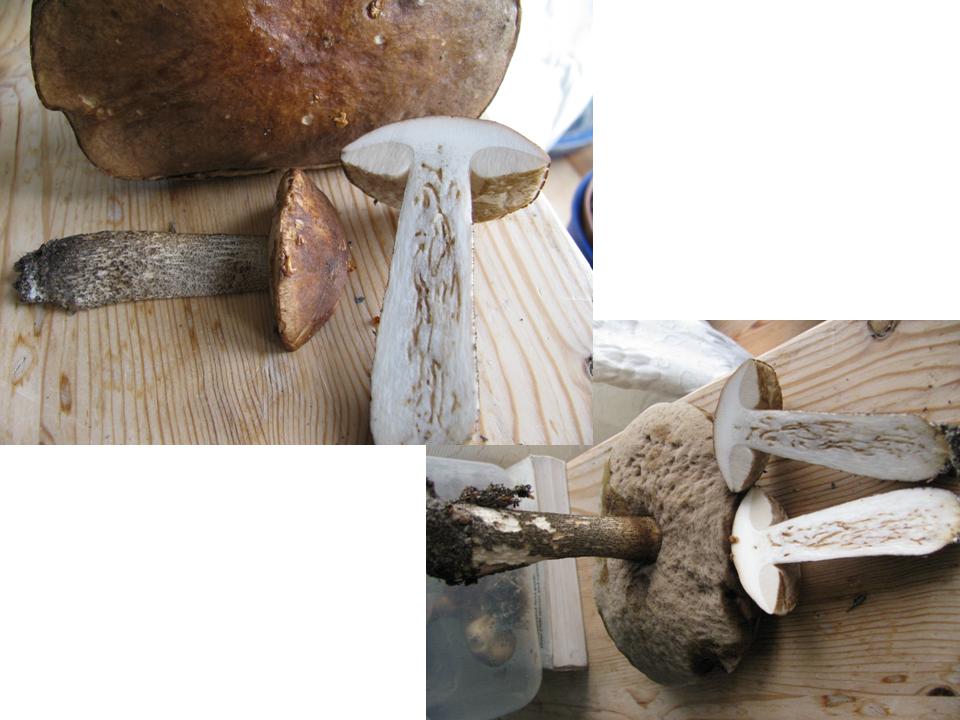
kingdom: Fungi
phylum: Basidiomycota
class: Agaricomycetes
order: Boletales
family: Boletaceae
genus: Leccinum
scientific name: Leccinum scabrum
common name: brun skælrørhat
